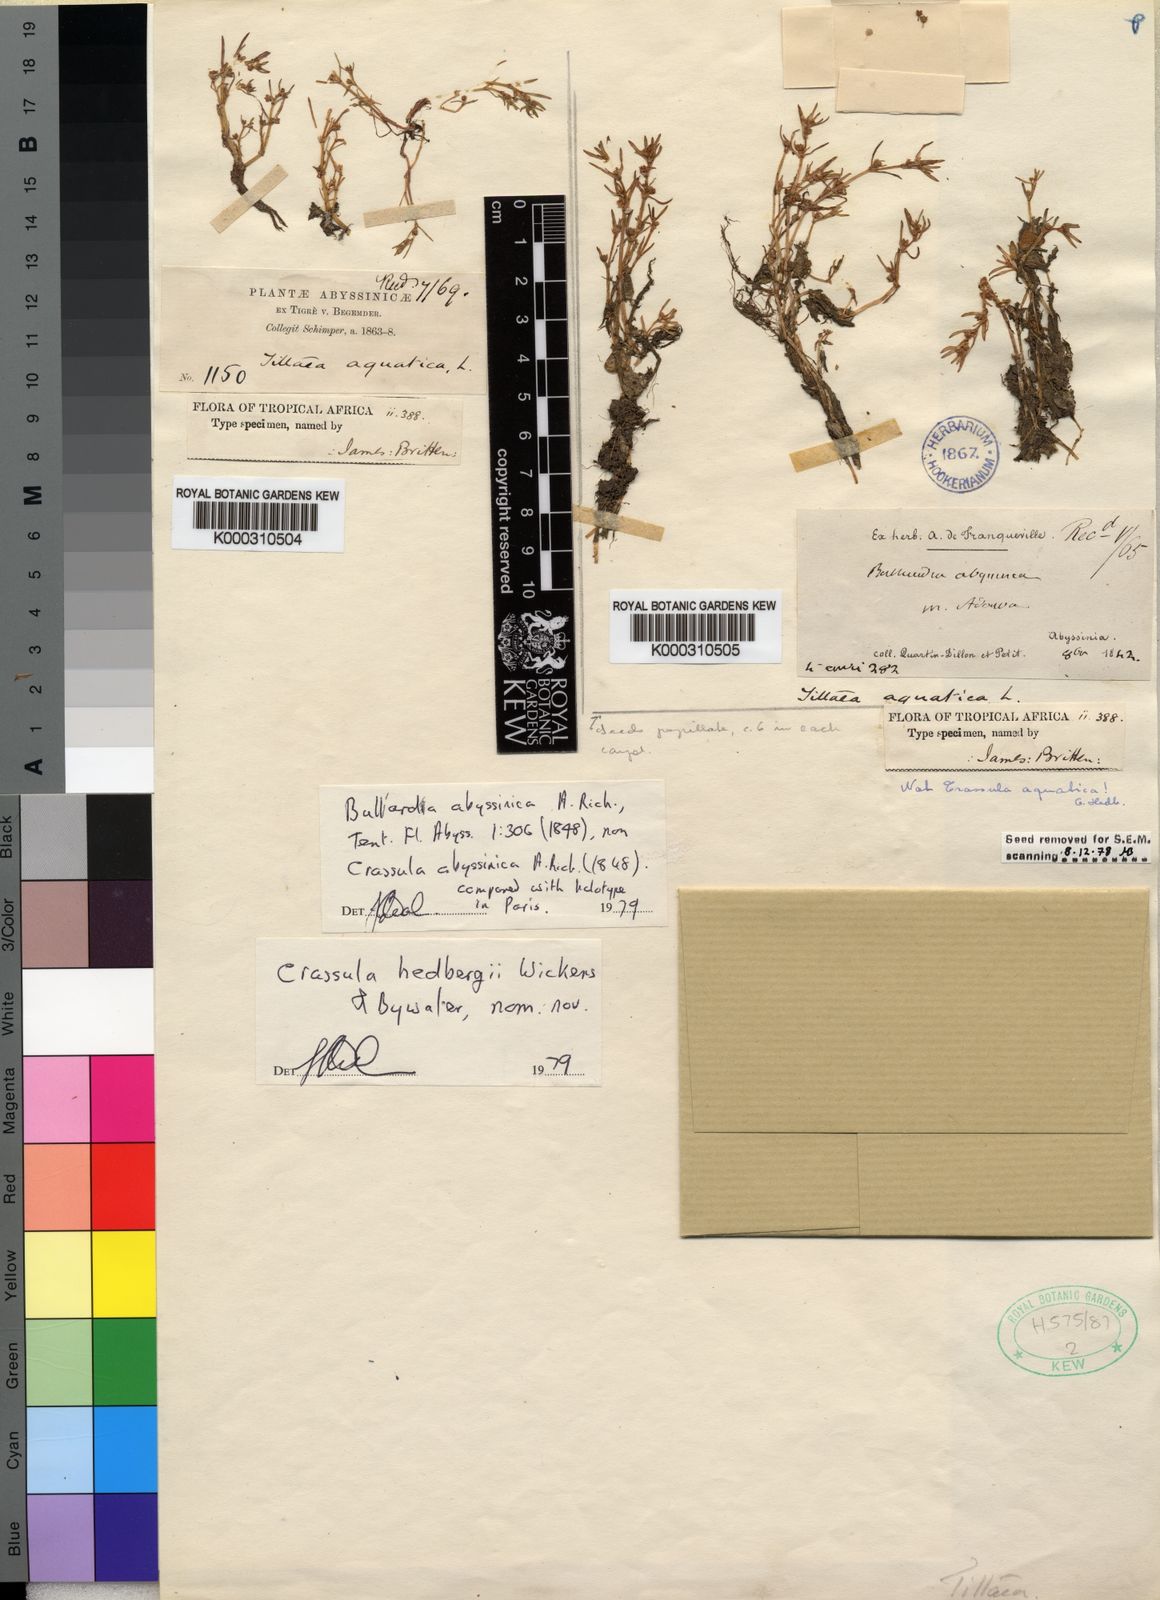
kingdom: Plantae
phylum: Tracheophyta
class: Magnoliopsida
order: Saxifragales
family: Crassulaceae
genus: Crassula
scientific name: Crassula granvikii
